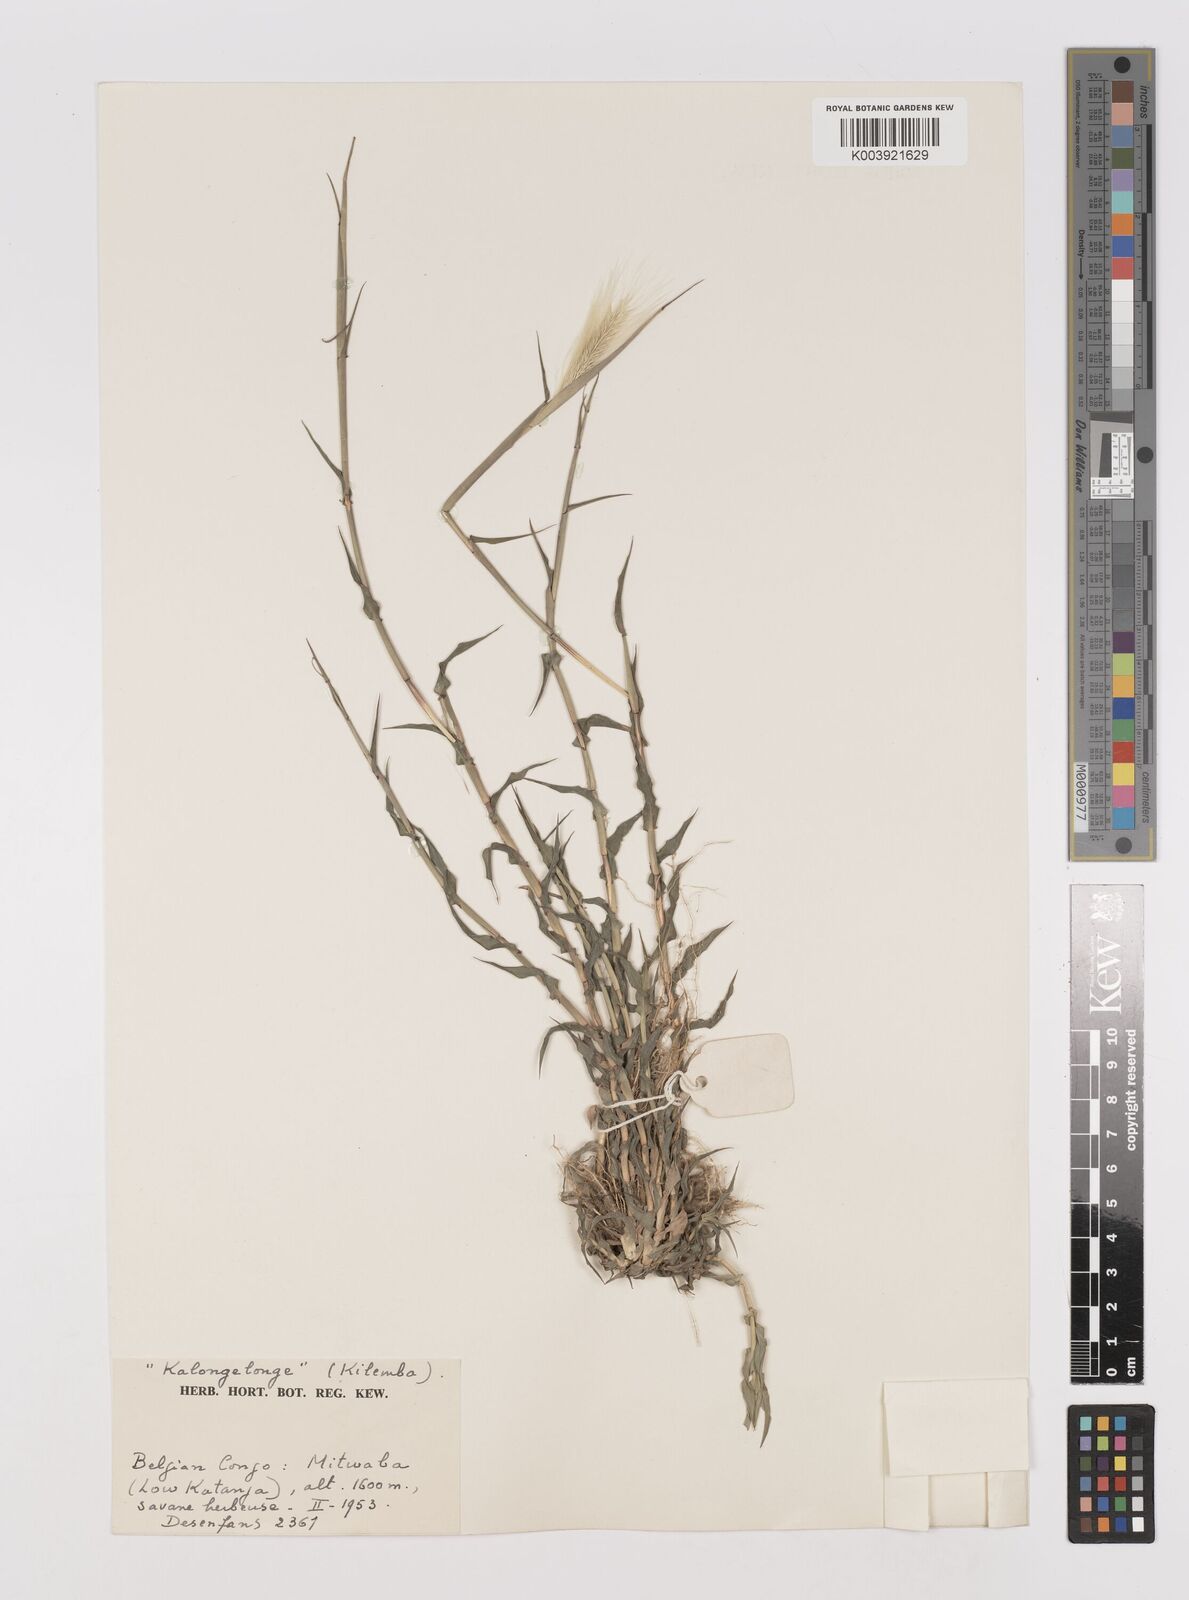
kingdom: Plantae
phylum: Tracheophyta
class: Liliopsida
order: Poales
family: Poaceae
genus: Perotis
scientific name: Perotis vaginata
